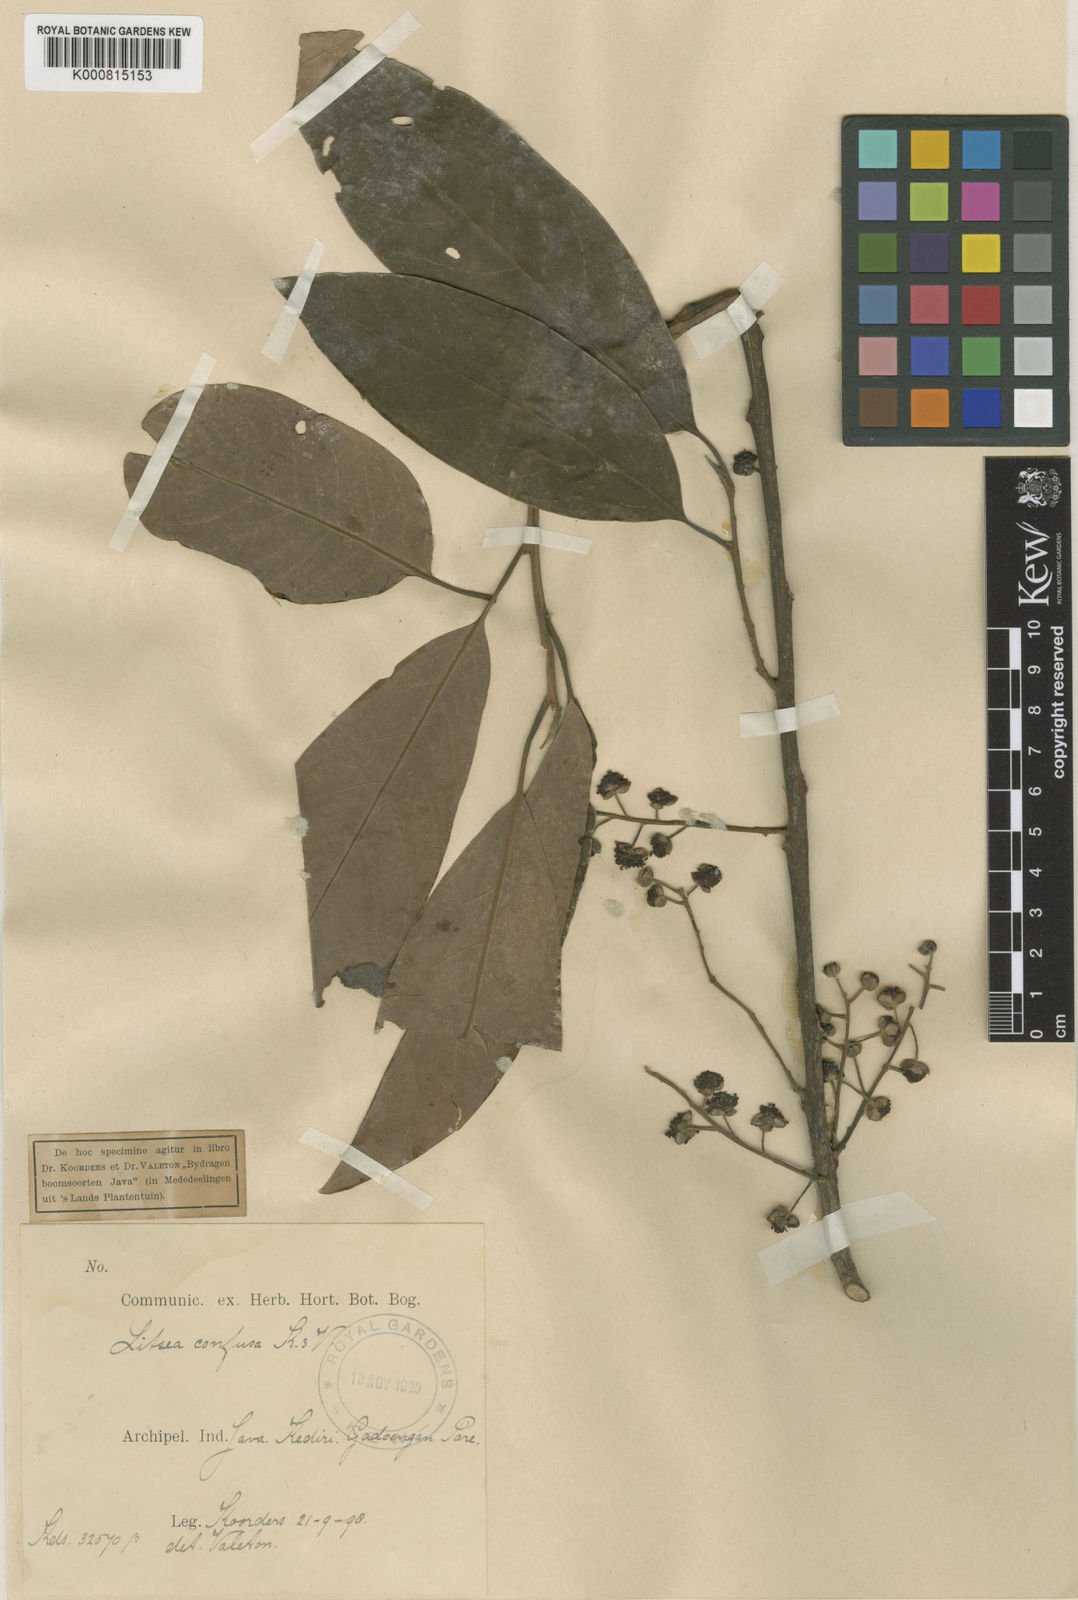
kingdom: Plantae
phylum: Tracheophyta
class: Magnoliopsida
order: Laurales
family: Lauraceae
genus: Litsea
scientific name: Litsea confusa
